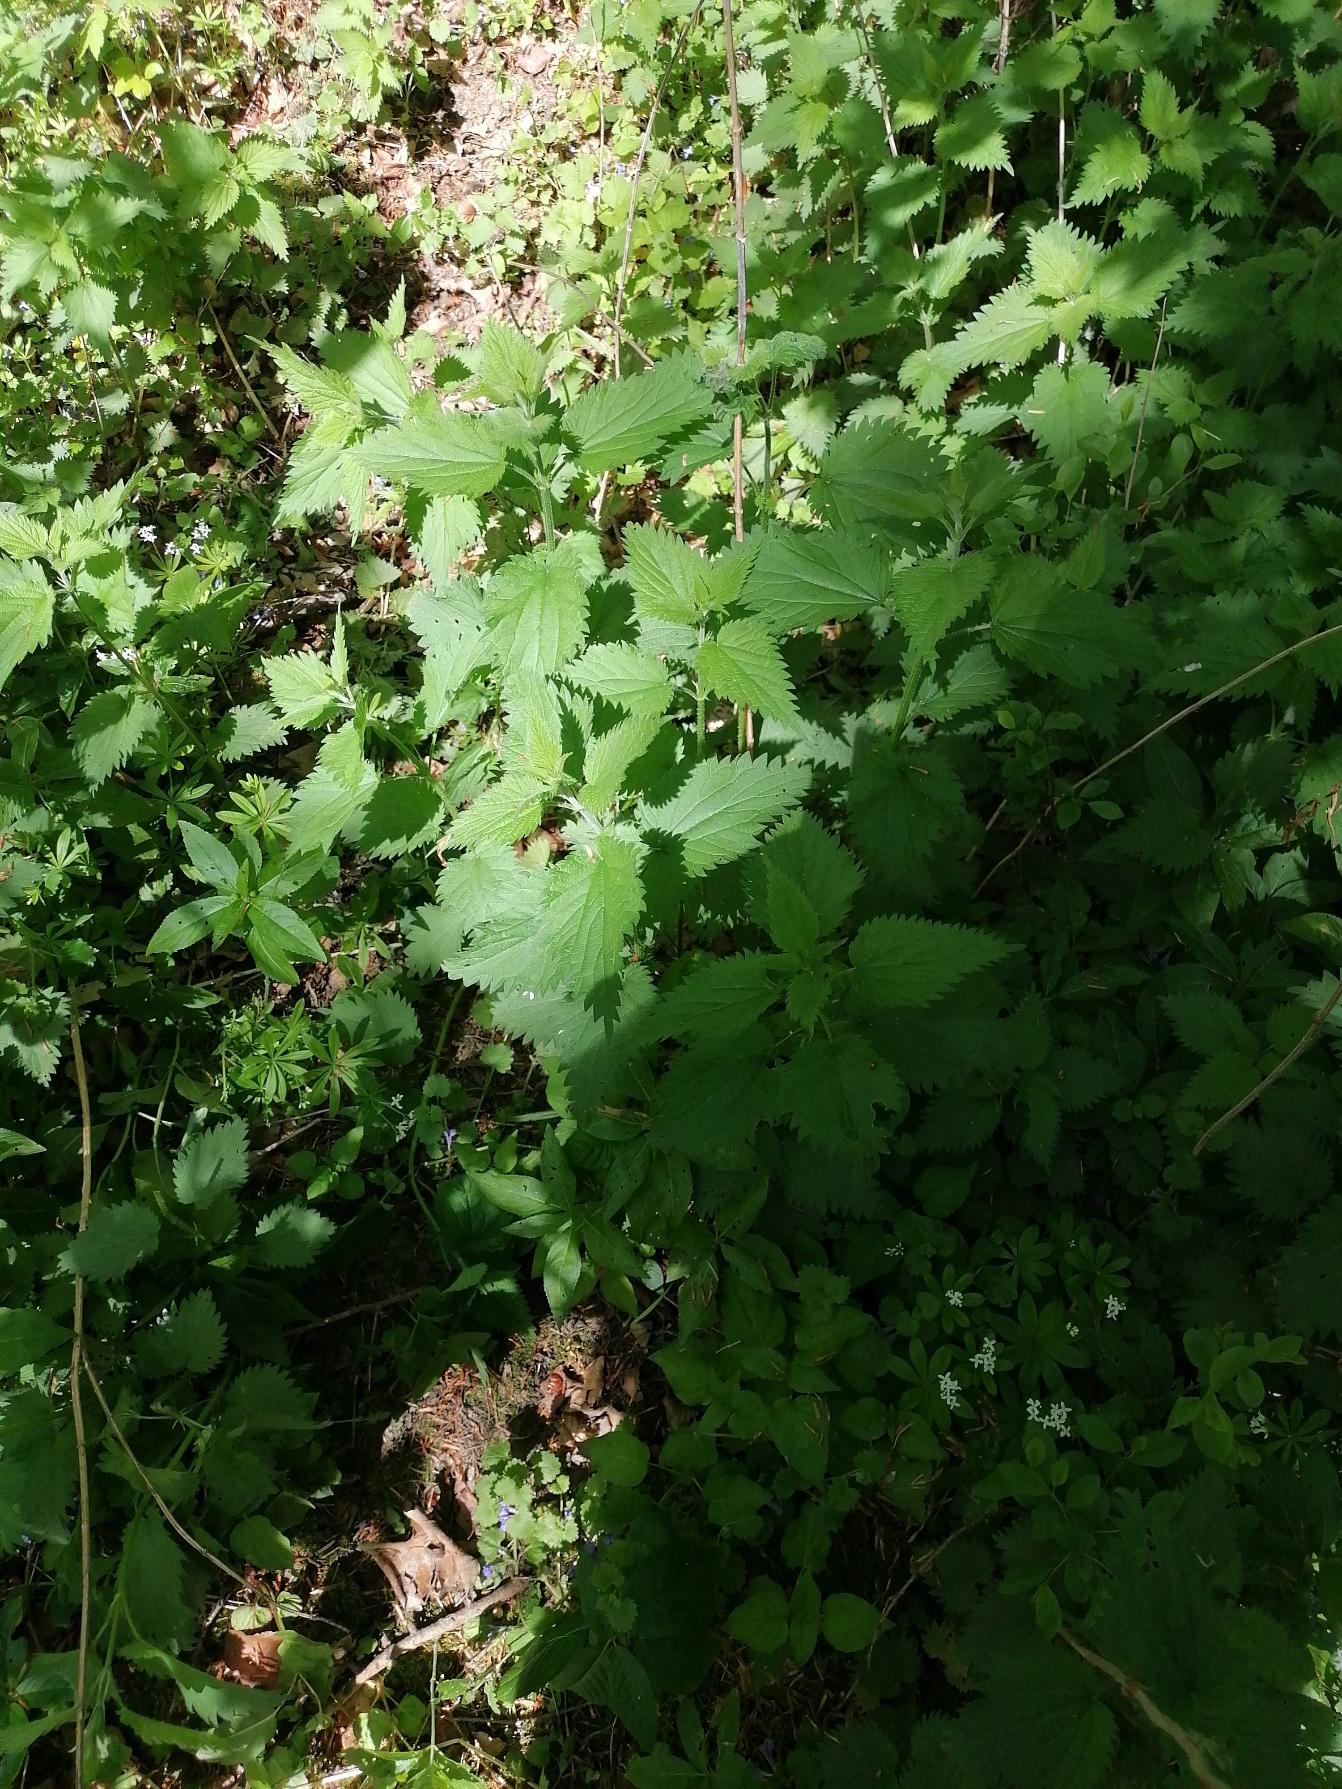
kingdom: Plantae
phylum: Tracheophyta
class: Magnoliopsida
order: Rosales
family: Urticaceae
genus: Urtica
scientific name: Urtica dioica
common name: Stor nælde
